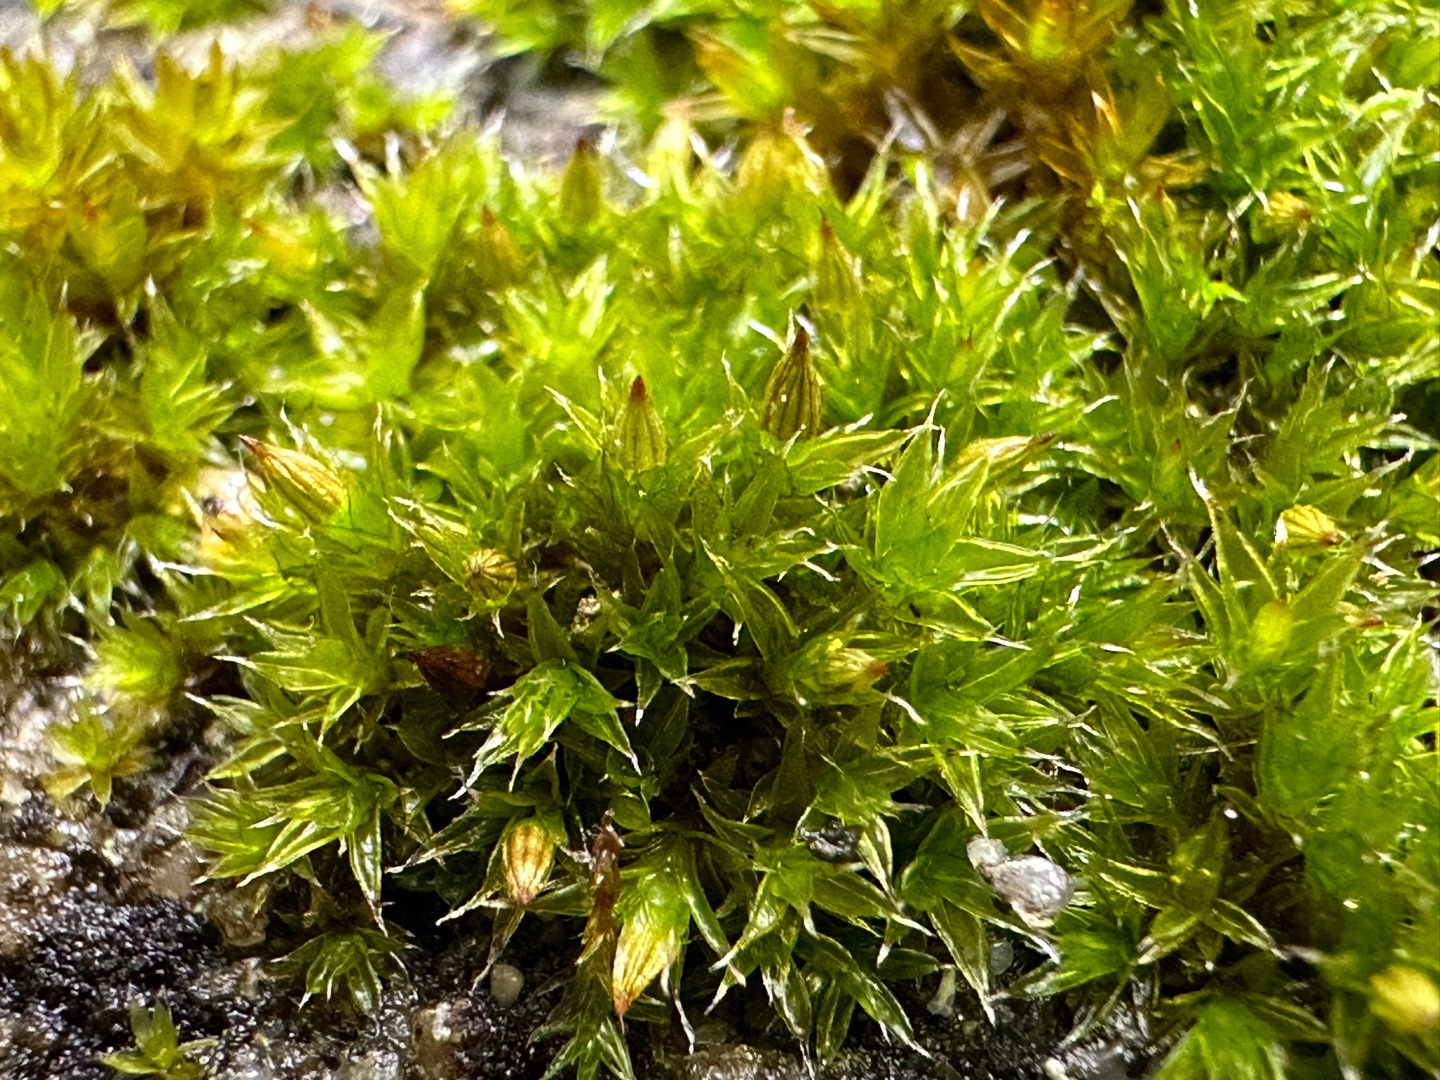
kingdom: Plantae
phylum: Bryophyta
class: Bryopsida
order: Orthotrichales
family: Orthotrichaceae
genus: Orthotrichum
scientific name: Orthotrichum diaphanum
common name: Hårspidset furehætte
